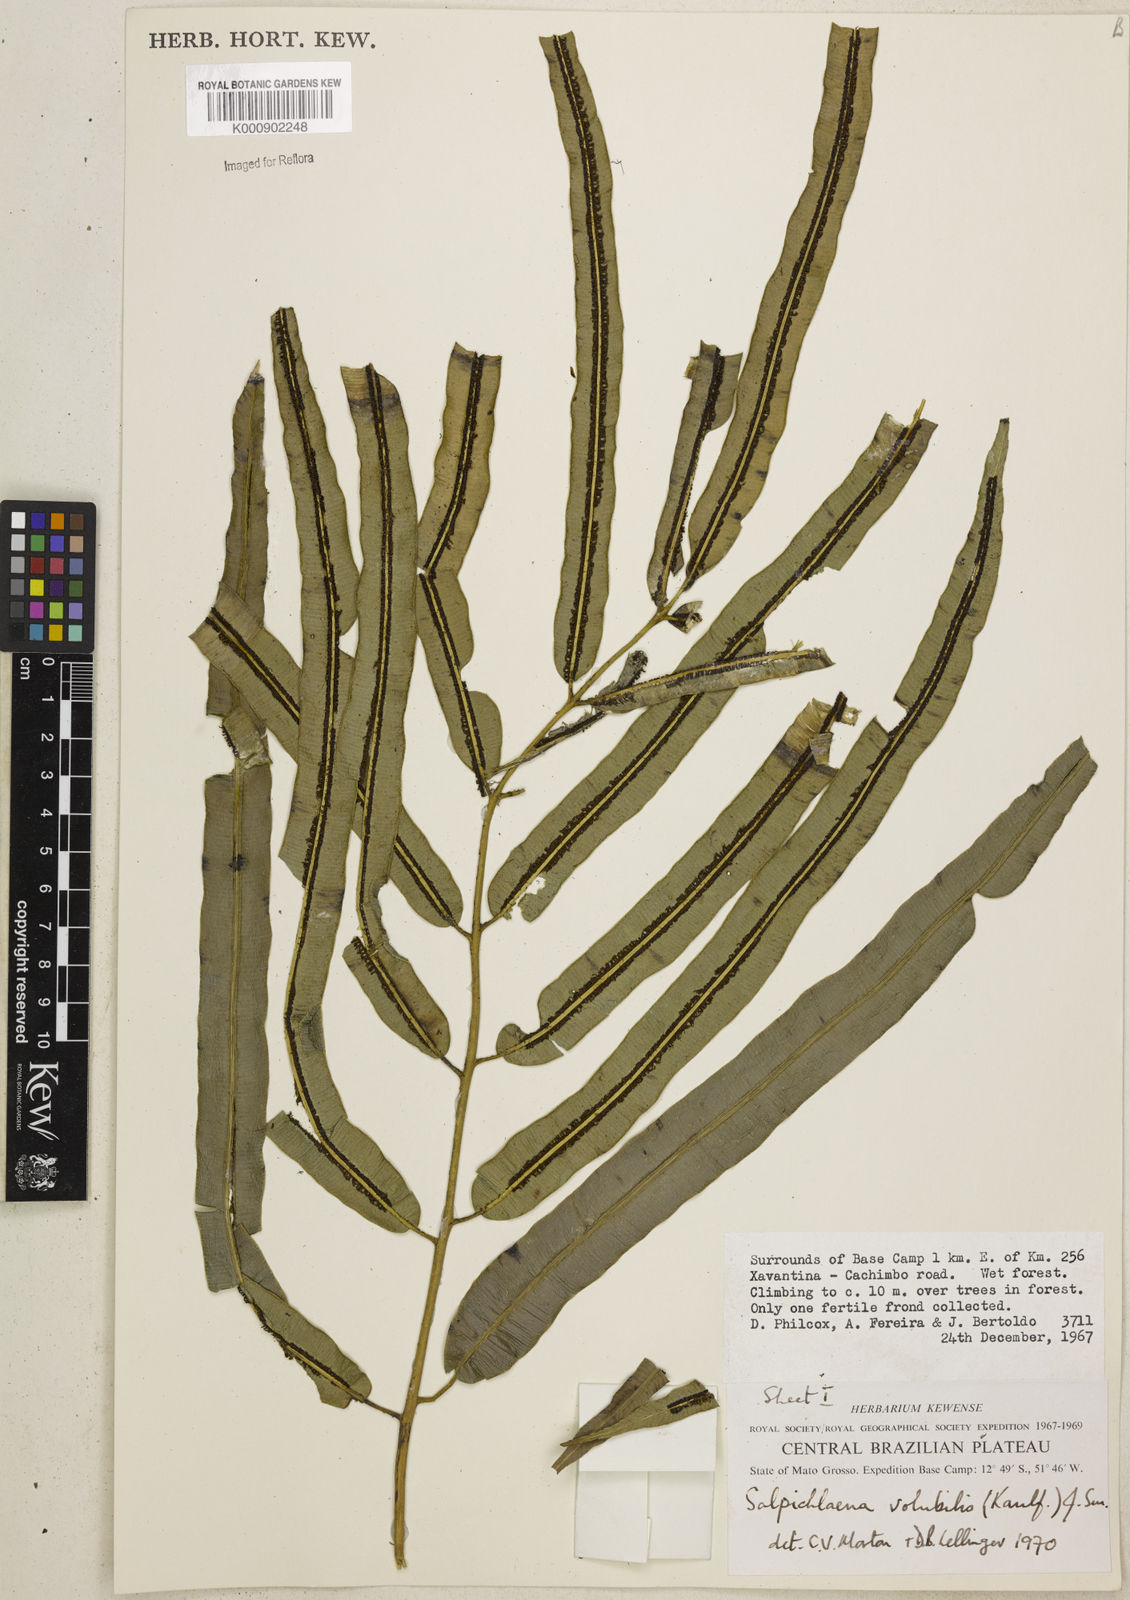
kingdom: Plantae
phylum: Tracheophyta
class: Polypodiopsida
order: Polypodiales
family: Blechnaceae
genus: Salpichlaena
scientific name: Salpichlaena volubilis
